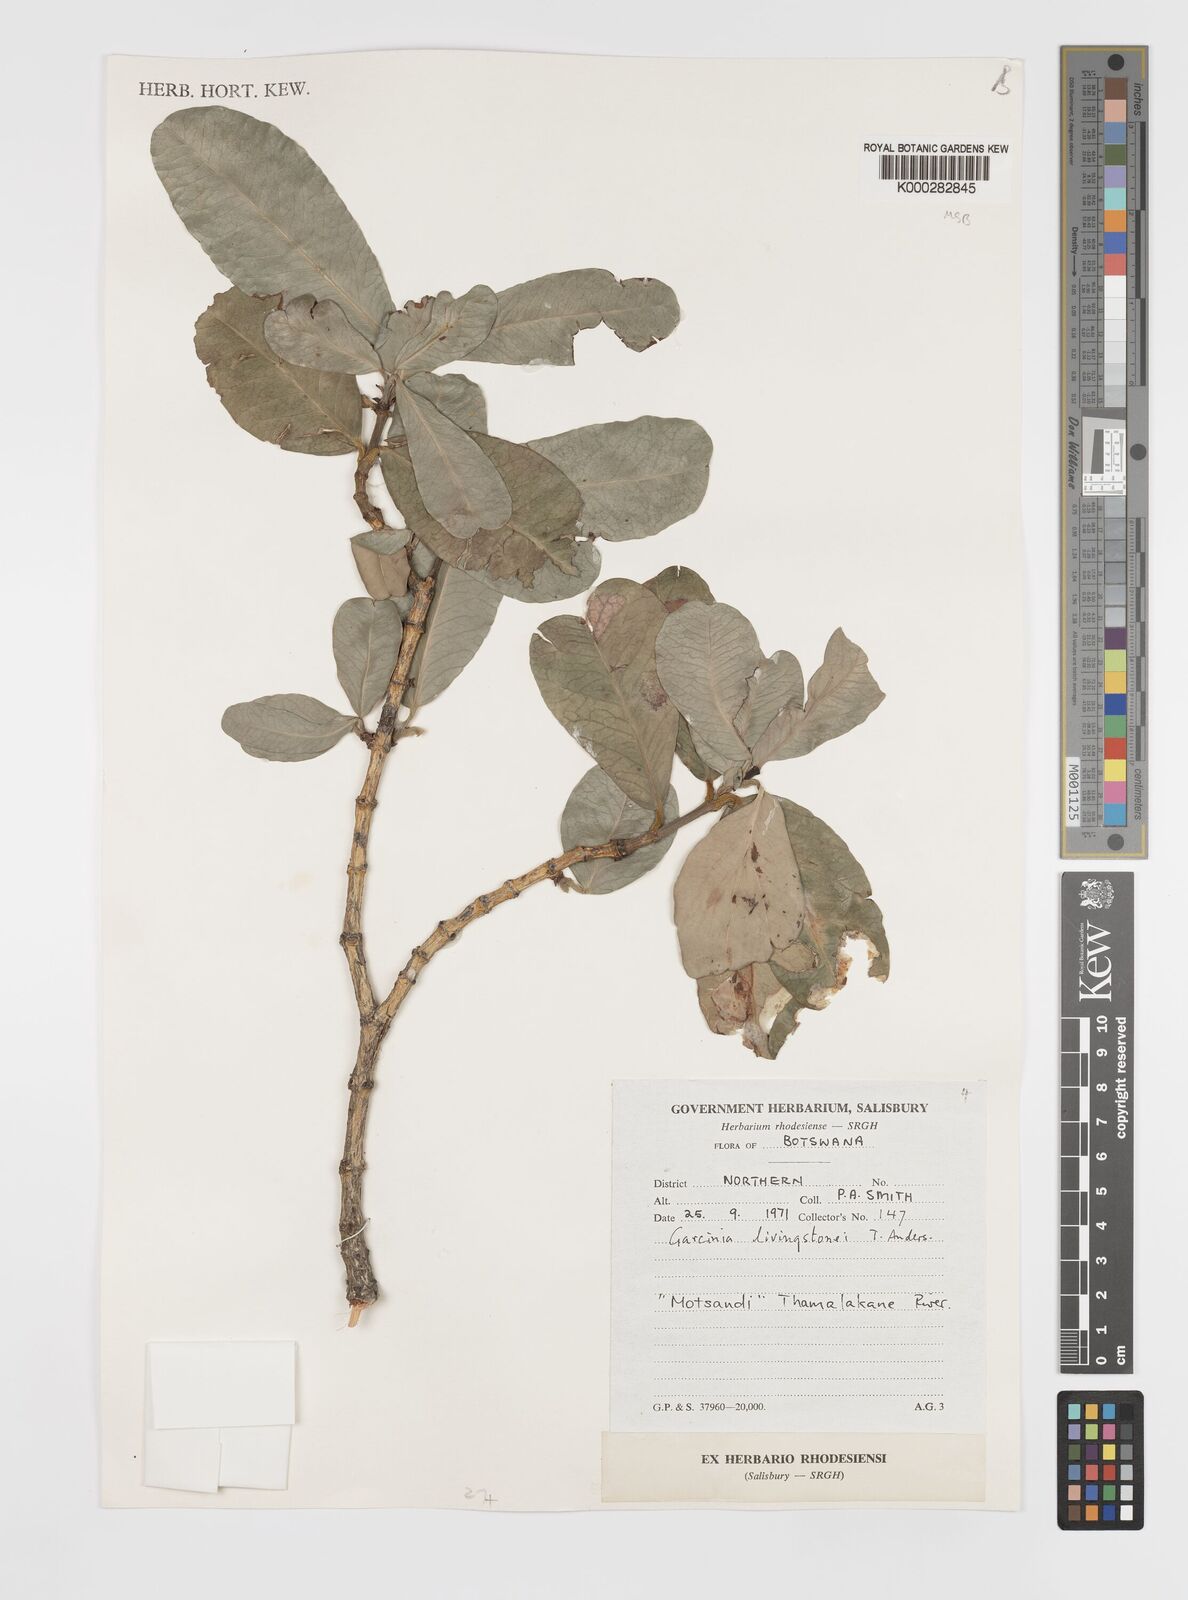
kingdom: Plantae
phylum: Tracheophyta
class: Magnoliopsida
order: Malpighiales
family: Clusiaceae
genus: Garcinia
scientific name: Garcinia livingstonei
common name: African mangosteen
